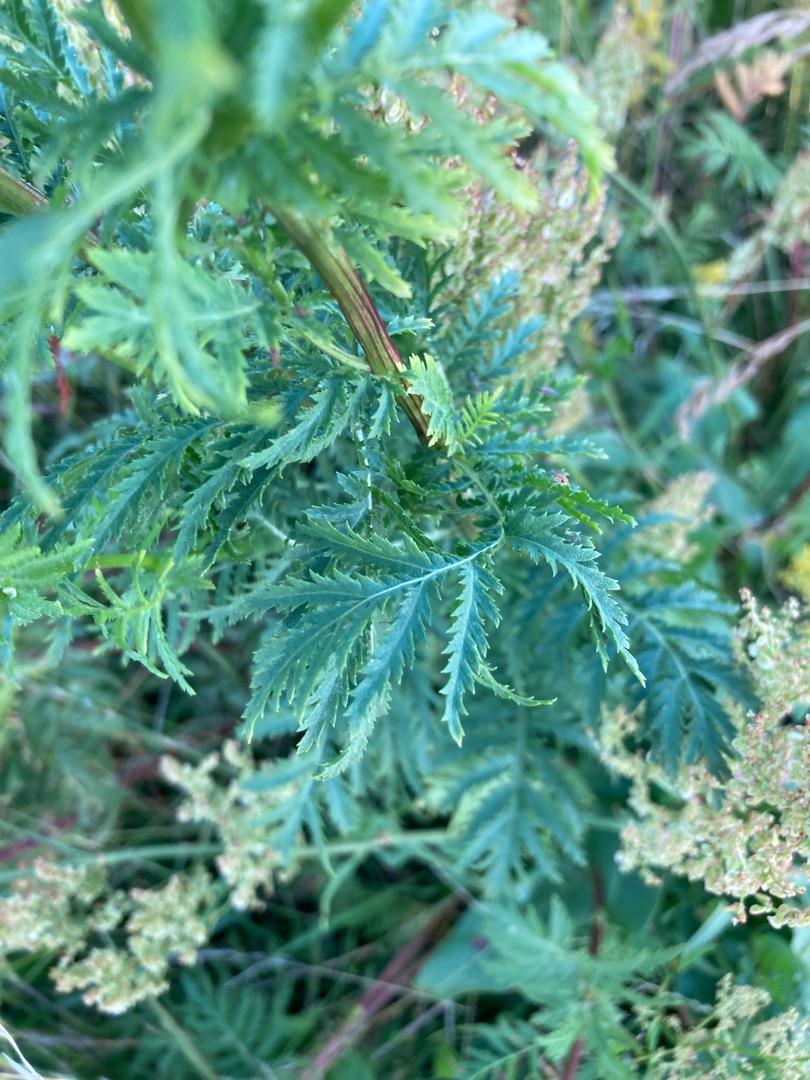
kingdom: Plantae
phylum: Tracheophyta
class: Magnoliopsida
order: Asterales
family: Asteraceae
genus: Tanacetum
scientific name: Tanacetum vulgare
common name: Rejnfan
